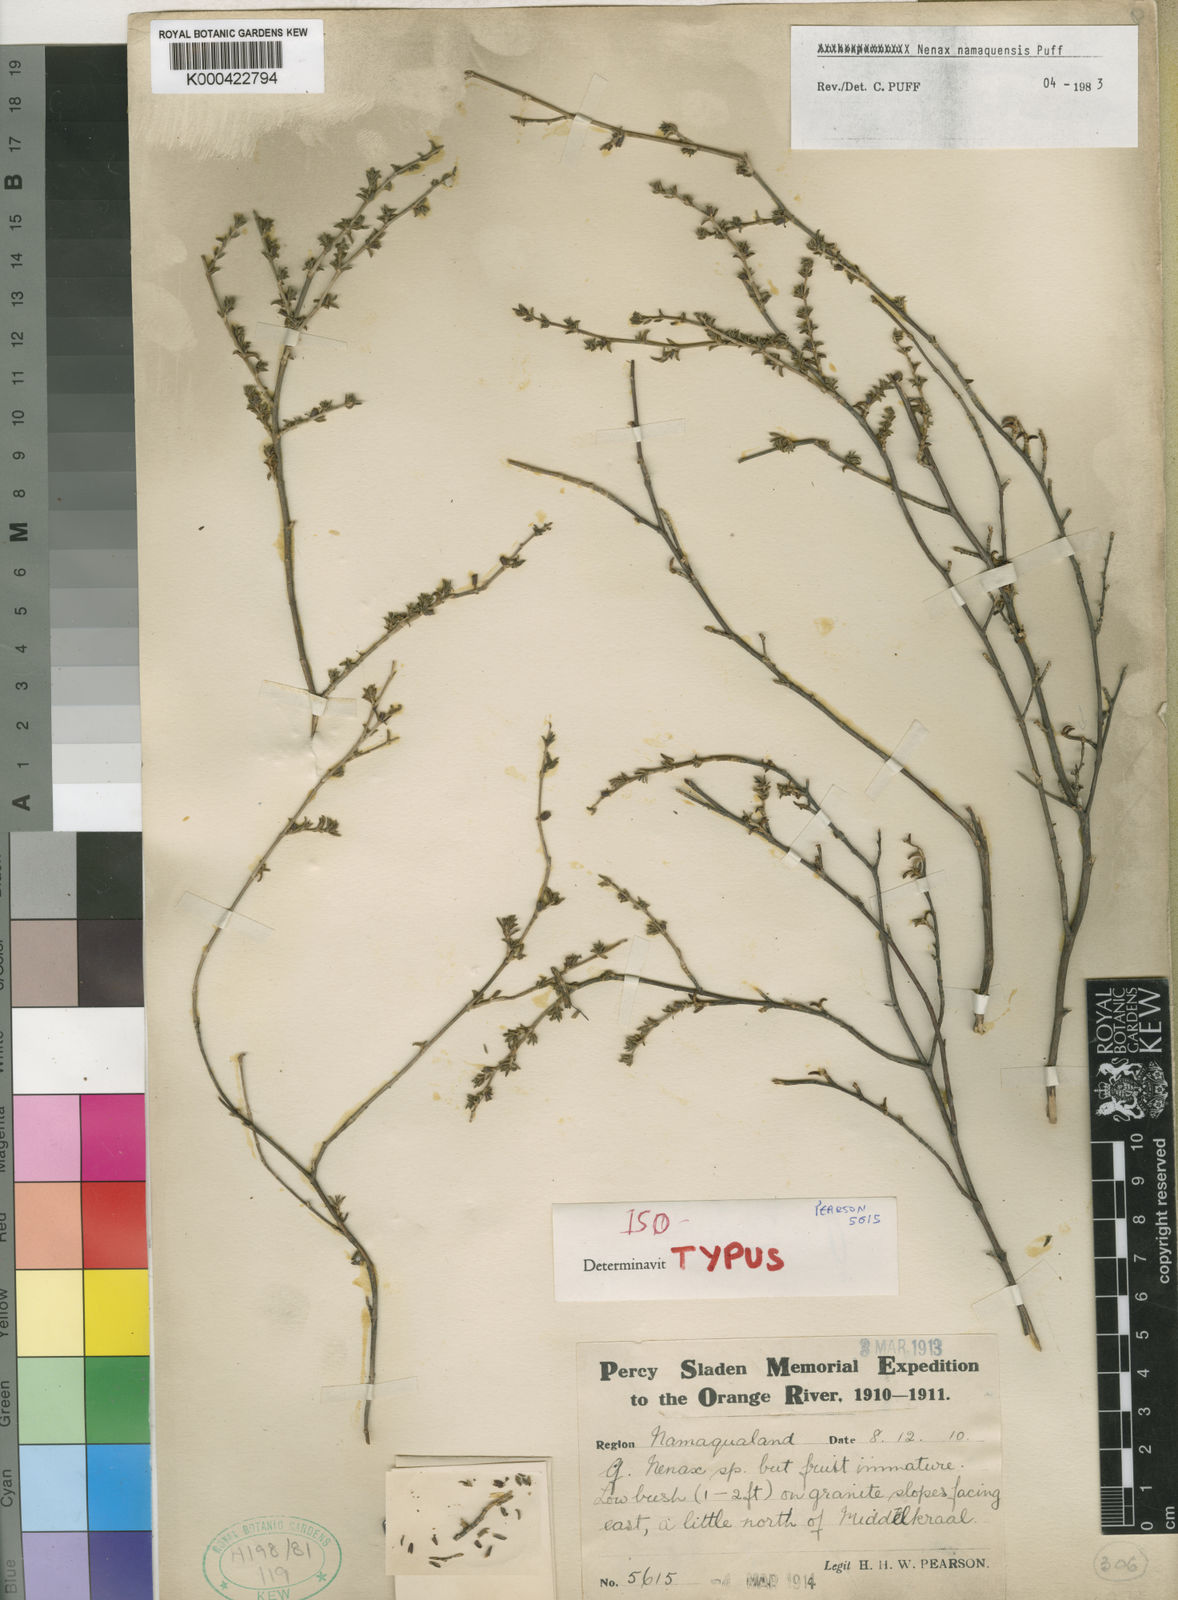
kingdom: Plantae
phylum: Tracheophyta
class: Magnoliopsida
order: Gentianales
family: Rubiaceae
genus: Nenax
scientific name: Nenax namaquensis
